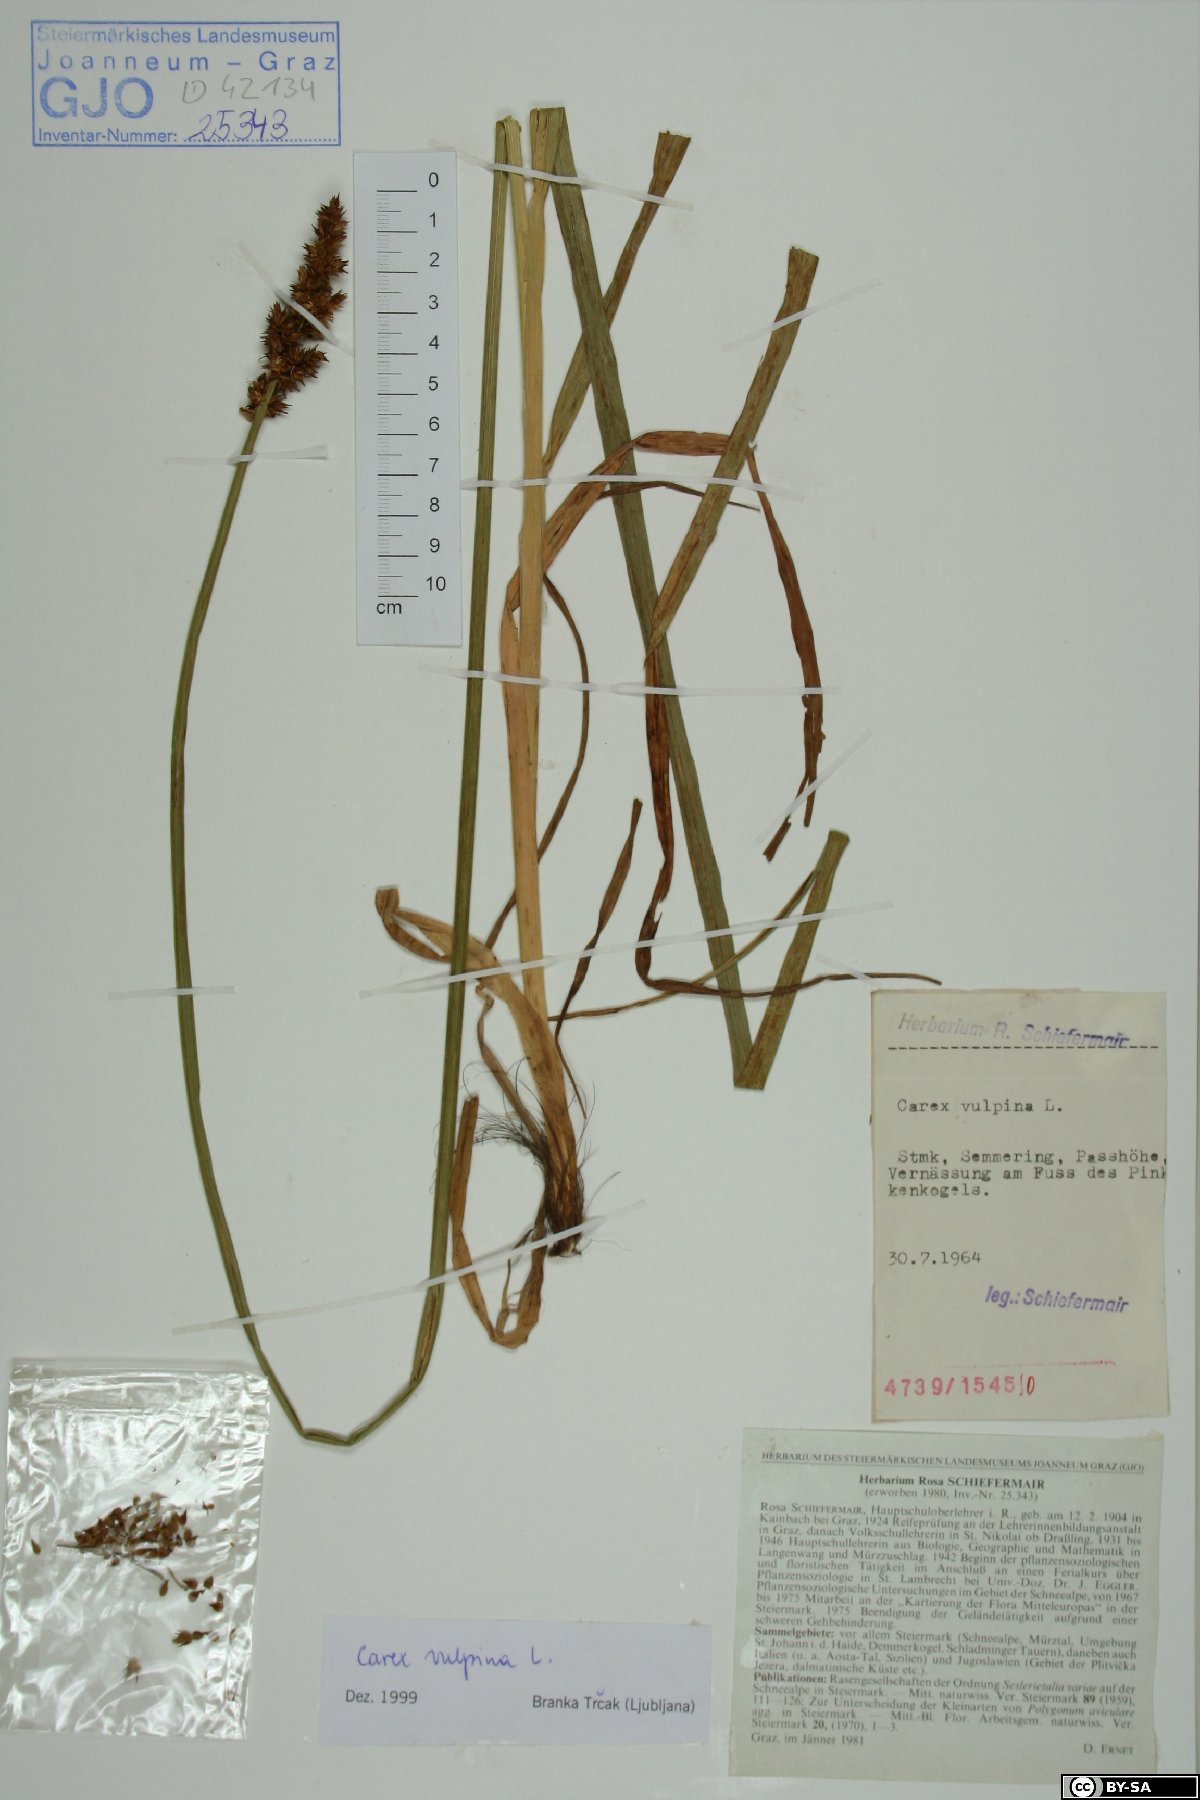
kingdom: Plantae
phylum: Tracheophyta
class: Liliopsida
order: Poales
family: Cyperaceae
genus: Carex
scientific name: Carex vulpina
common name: True fox-sedge
